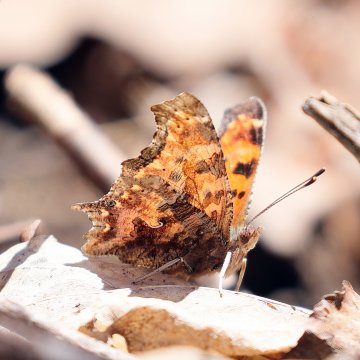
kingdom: Animalia
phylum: Arthropoda
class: Insecta
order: Lepidoptera
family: Nymphalidae
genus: Polygonia
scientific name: Polygonia comma
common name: Eastern Comma
